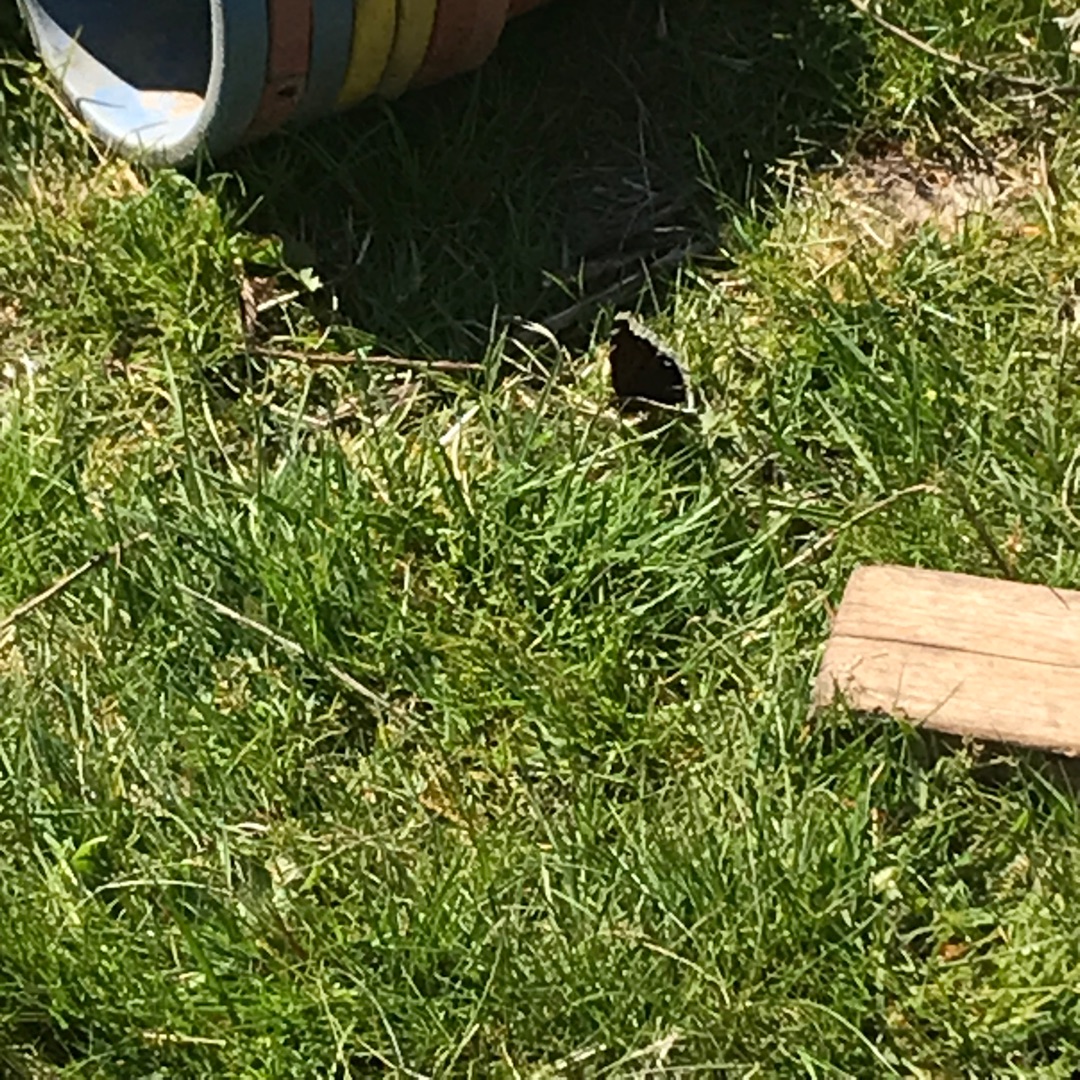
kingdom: Animalia
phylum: Arthropoda
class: Insecta
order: Lepidoptera
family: Nymphalidae
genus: Nymphalis
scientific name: Nymphalis antiopa
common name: Sørgekåbe
